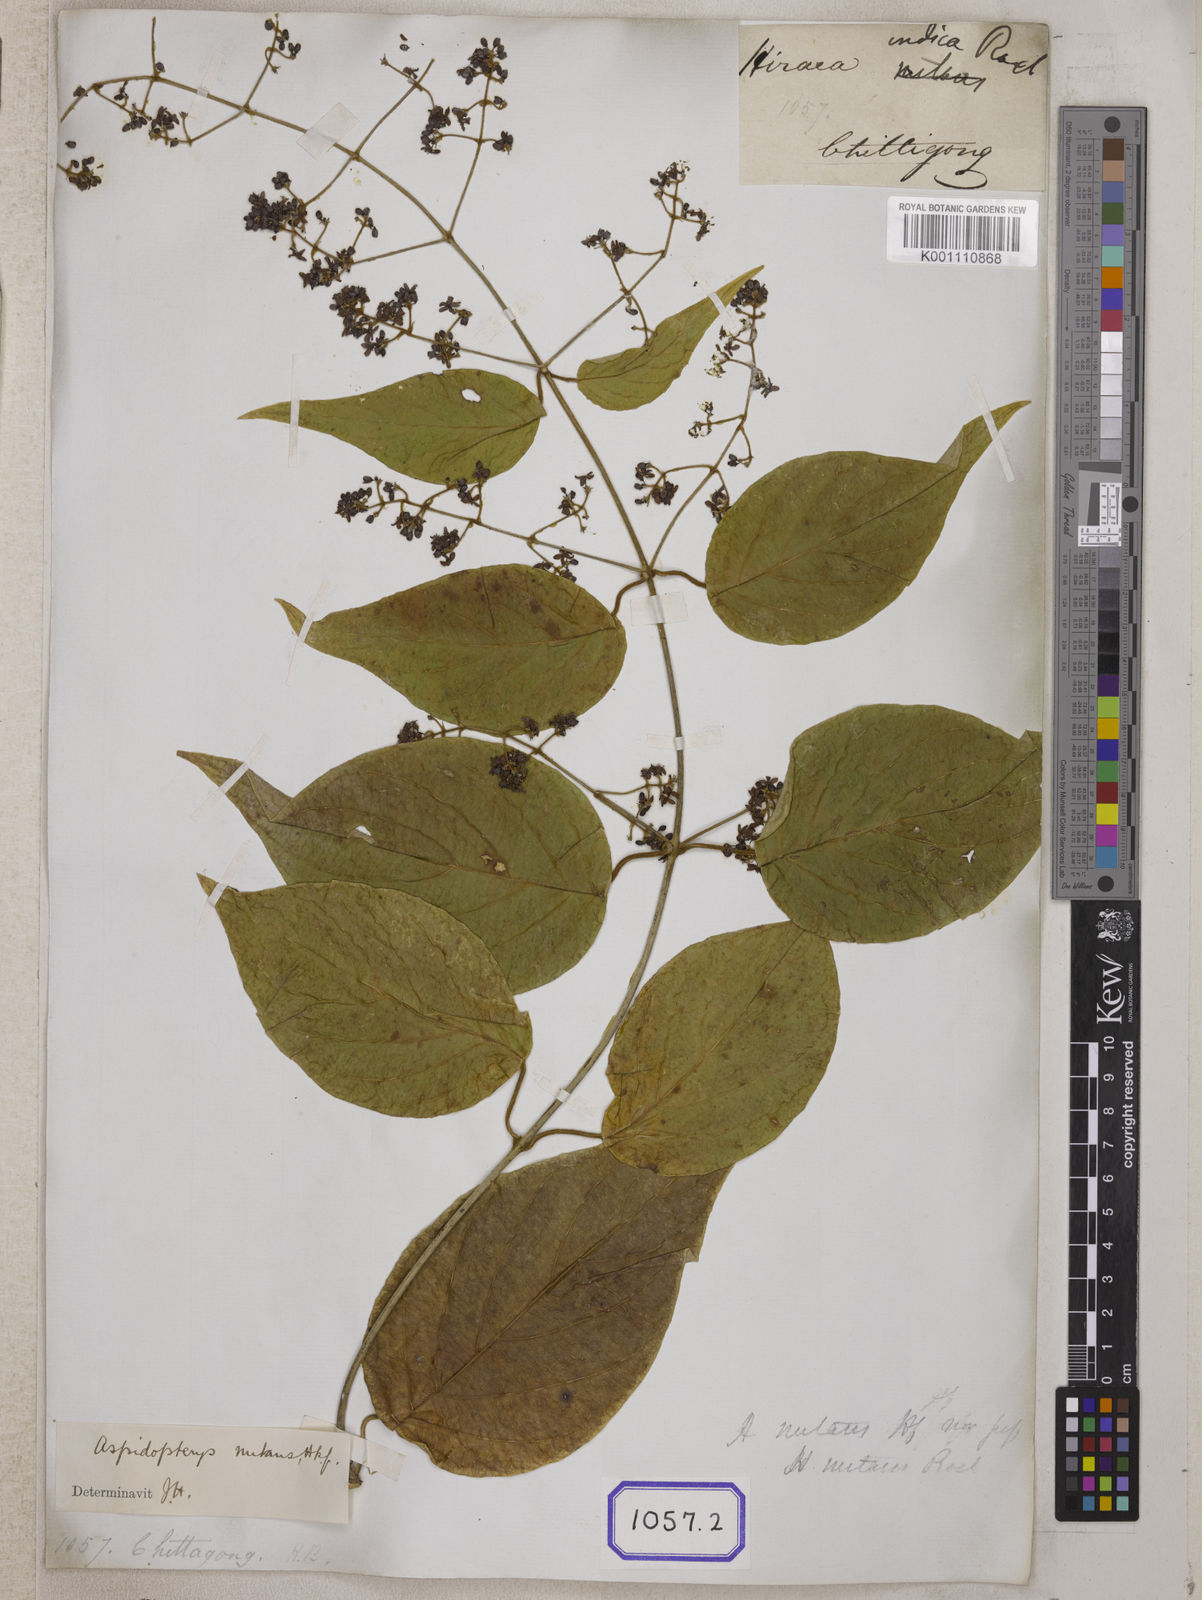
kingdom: Plantae
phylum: Tracheophyta
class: Magnoliopsida
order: Malpighiales
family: Malpighiaceae
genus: Aspidopterys
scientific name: Aspidopterys indica
